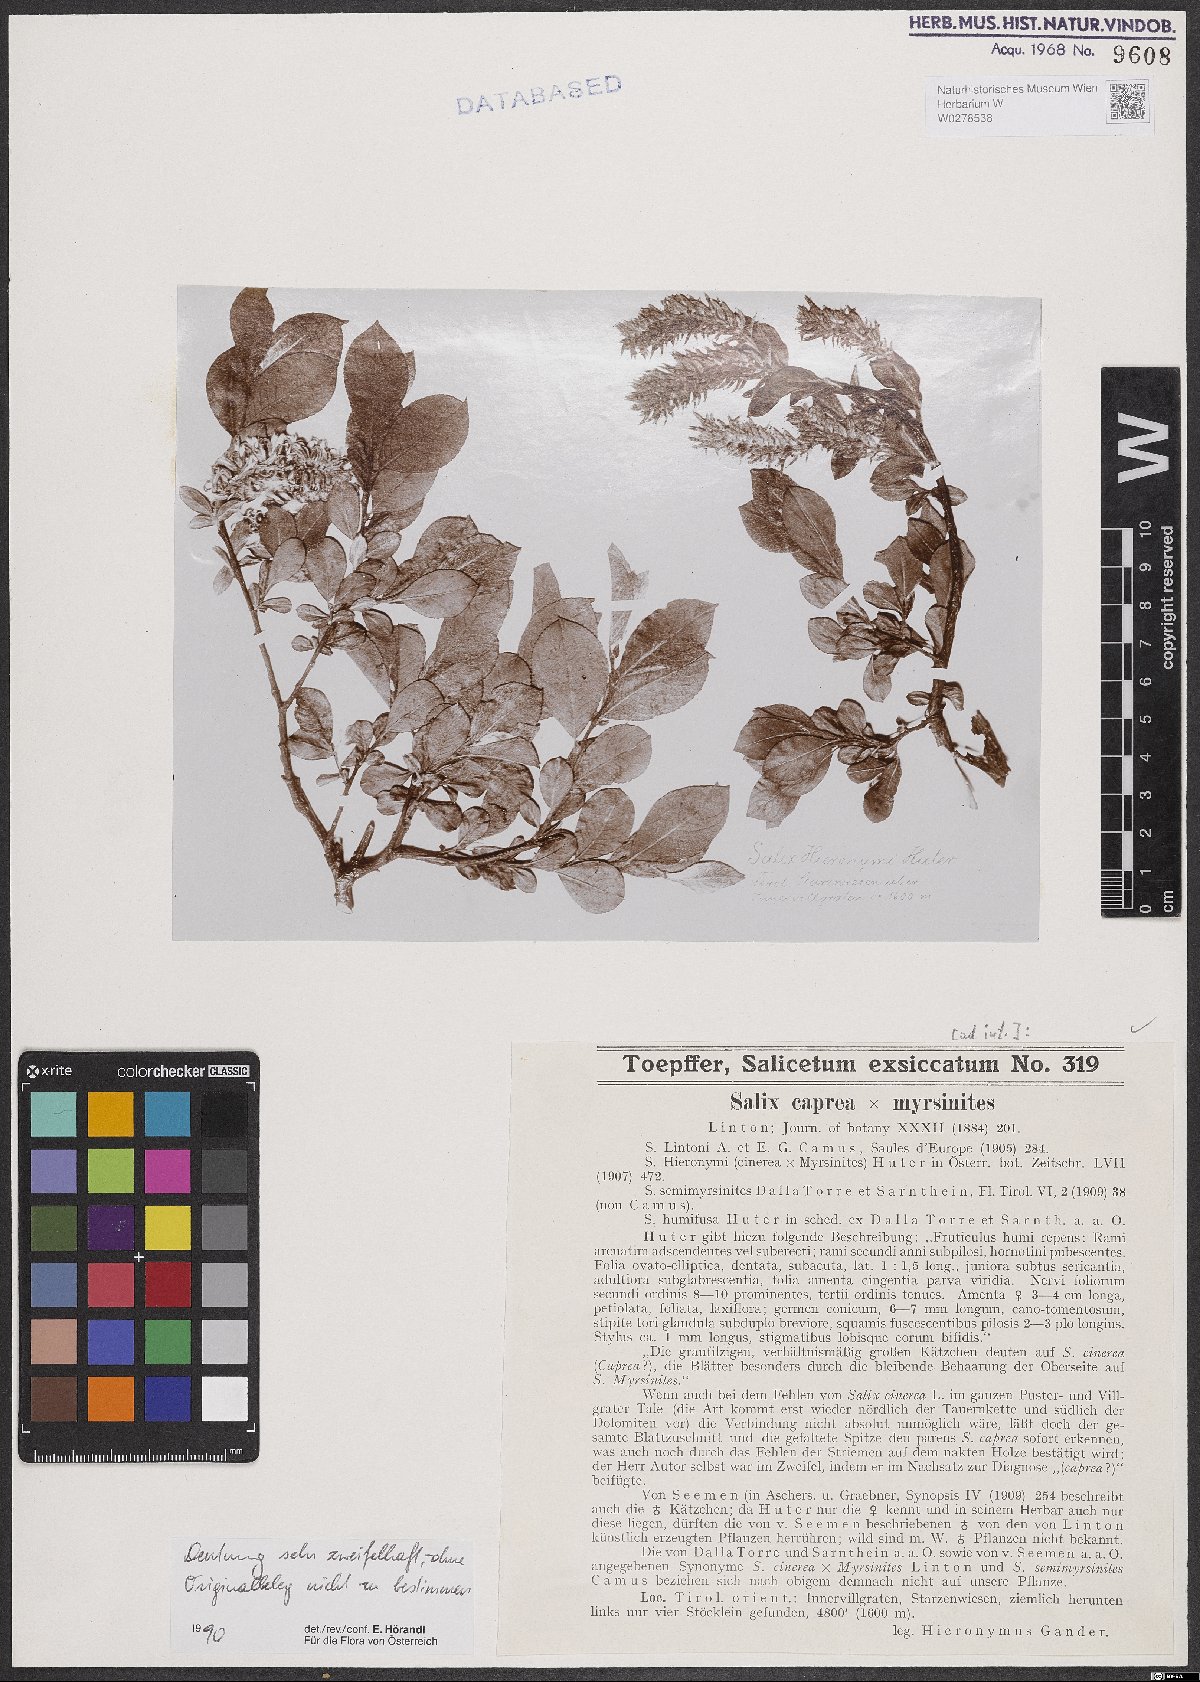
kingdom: Plantae
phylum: Tracheophyta
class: Magnoliopsida
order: Malpighiales
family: Salicaceae
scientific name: Salicaceae
